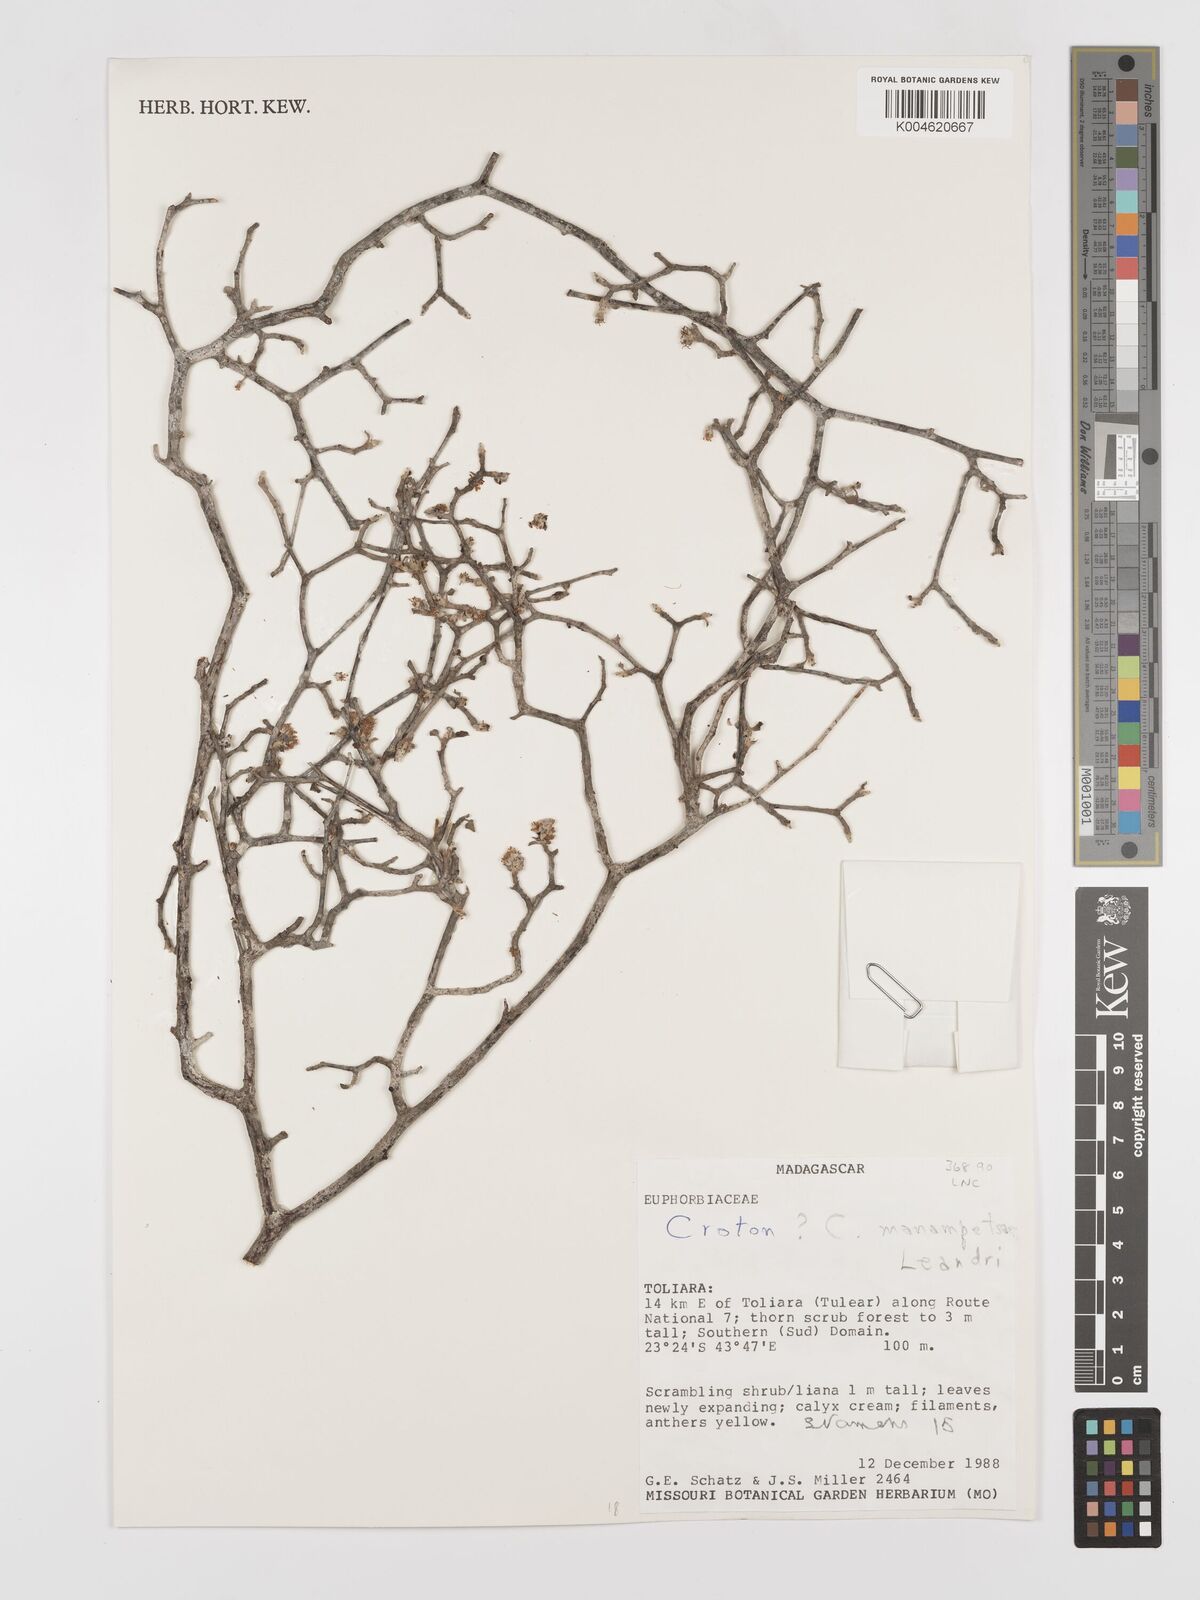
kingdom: Plantae
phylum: Tracheophyta
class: Magnoliopsida
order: Malpighiales
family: Euphorbiaceae
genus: Croton
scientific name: Croton ustulatus
